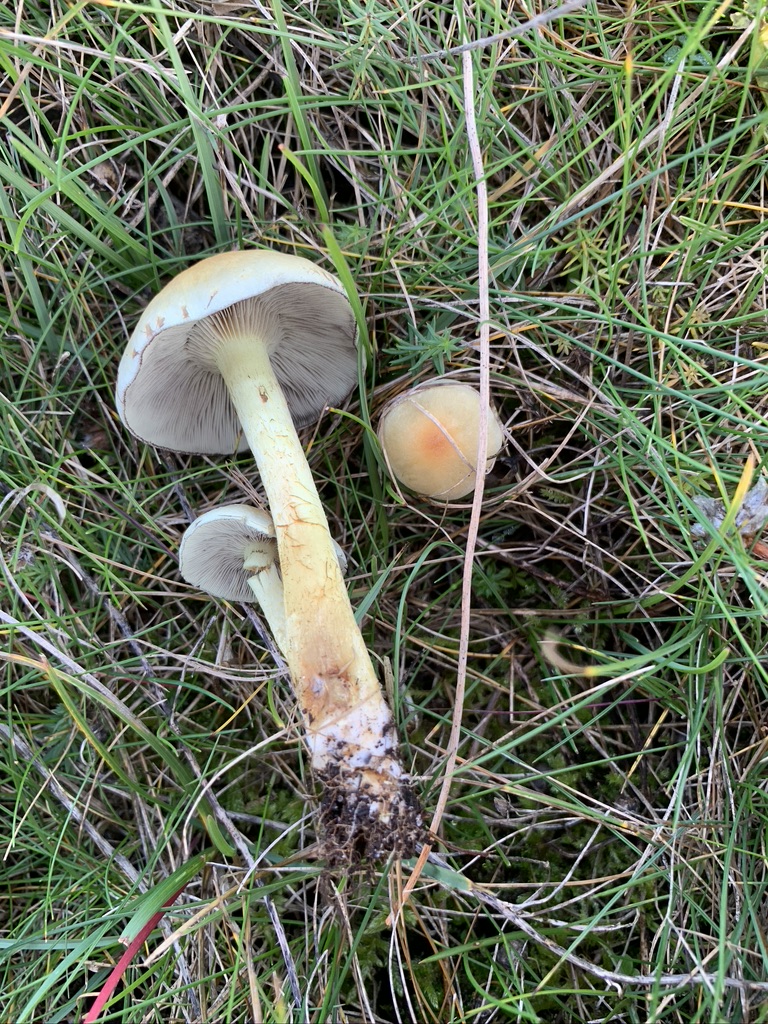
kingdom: Fungi
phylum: Basidiomycota
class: Agaricomycetes
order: Agaricales
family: Strophariaceae
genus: Hypholoma
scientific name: Hypholoma fasciculare
